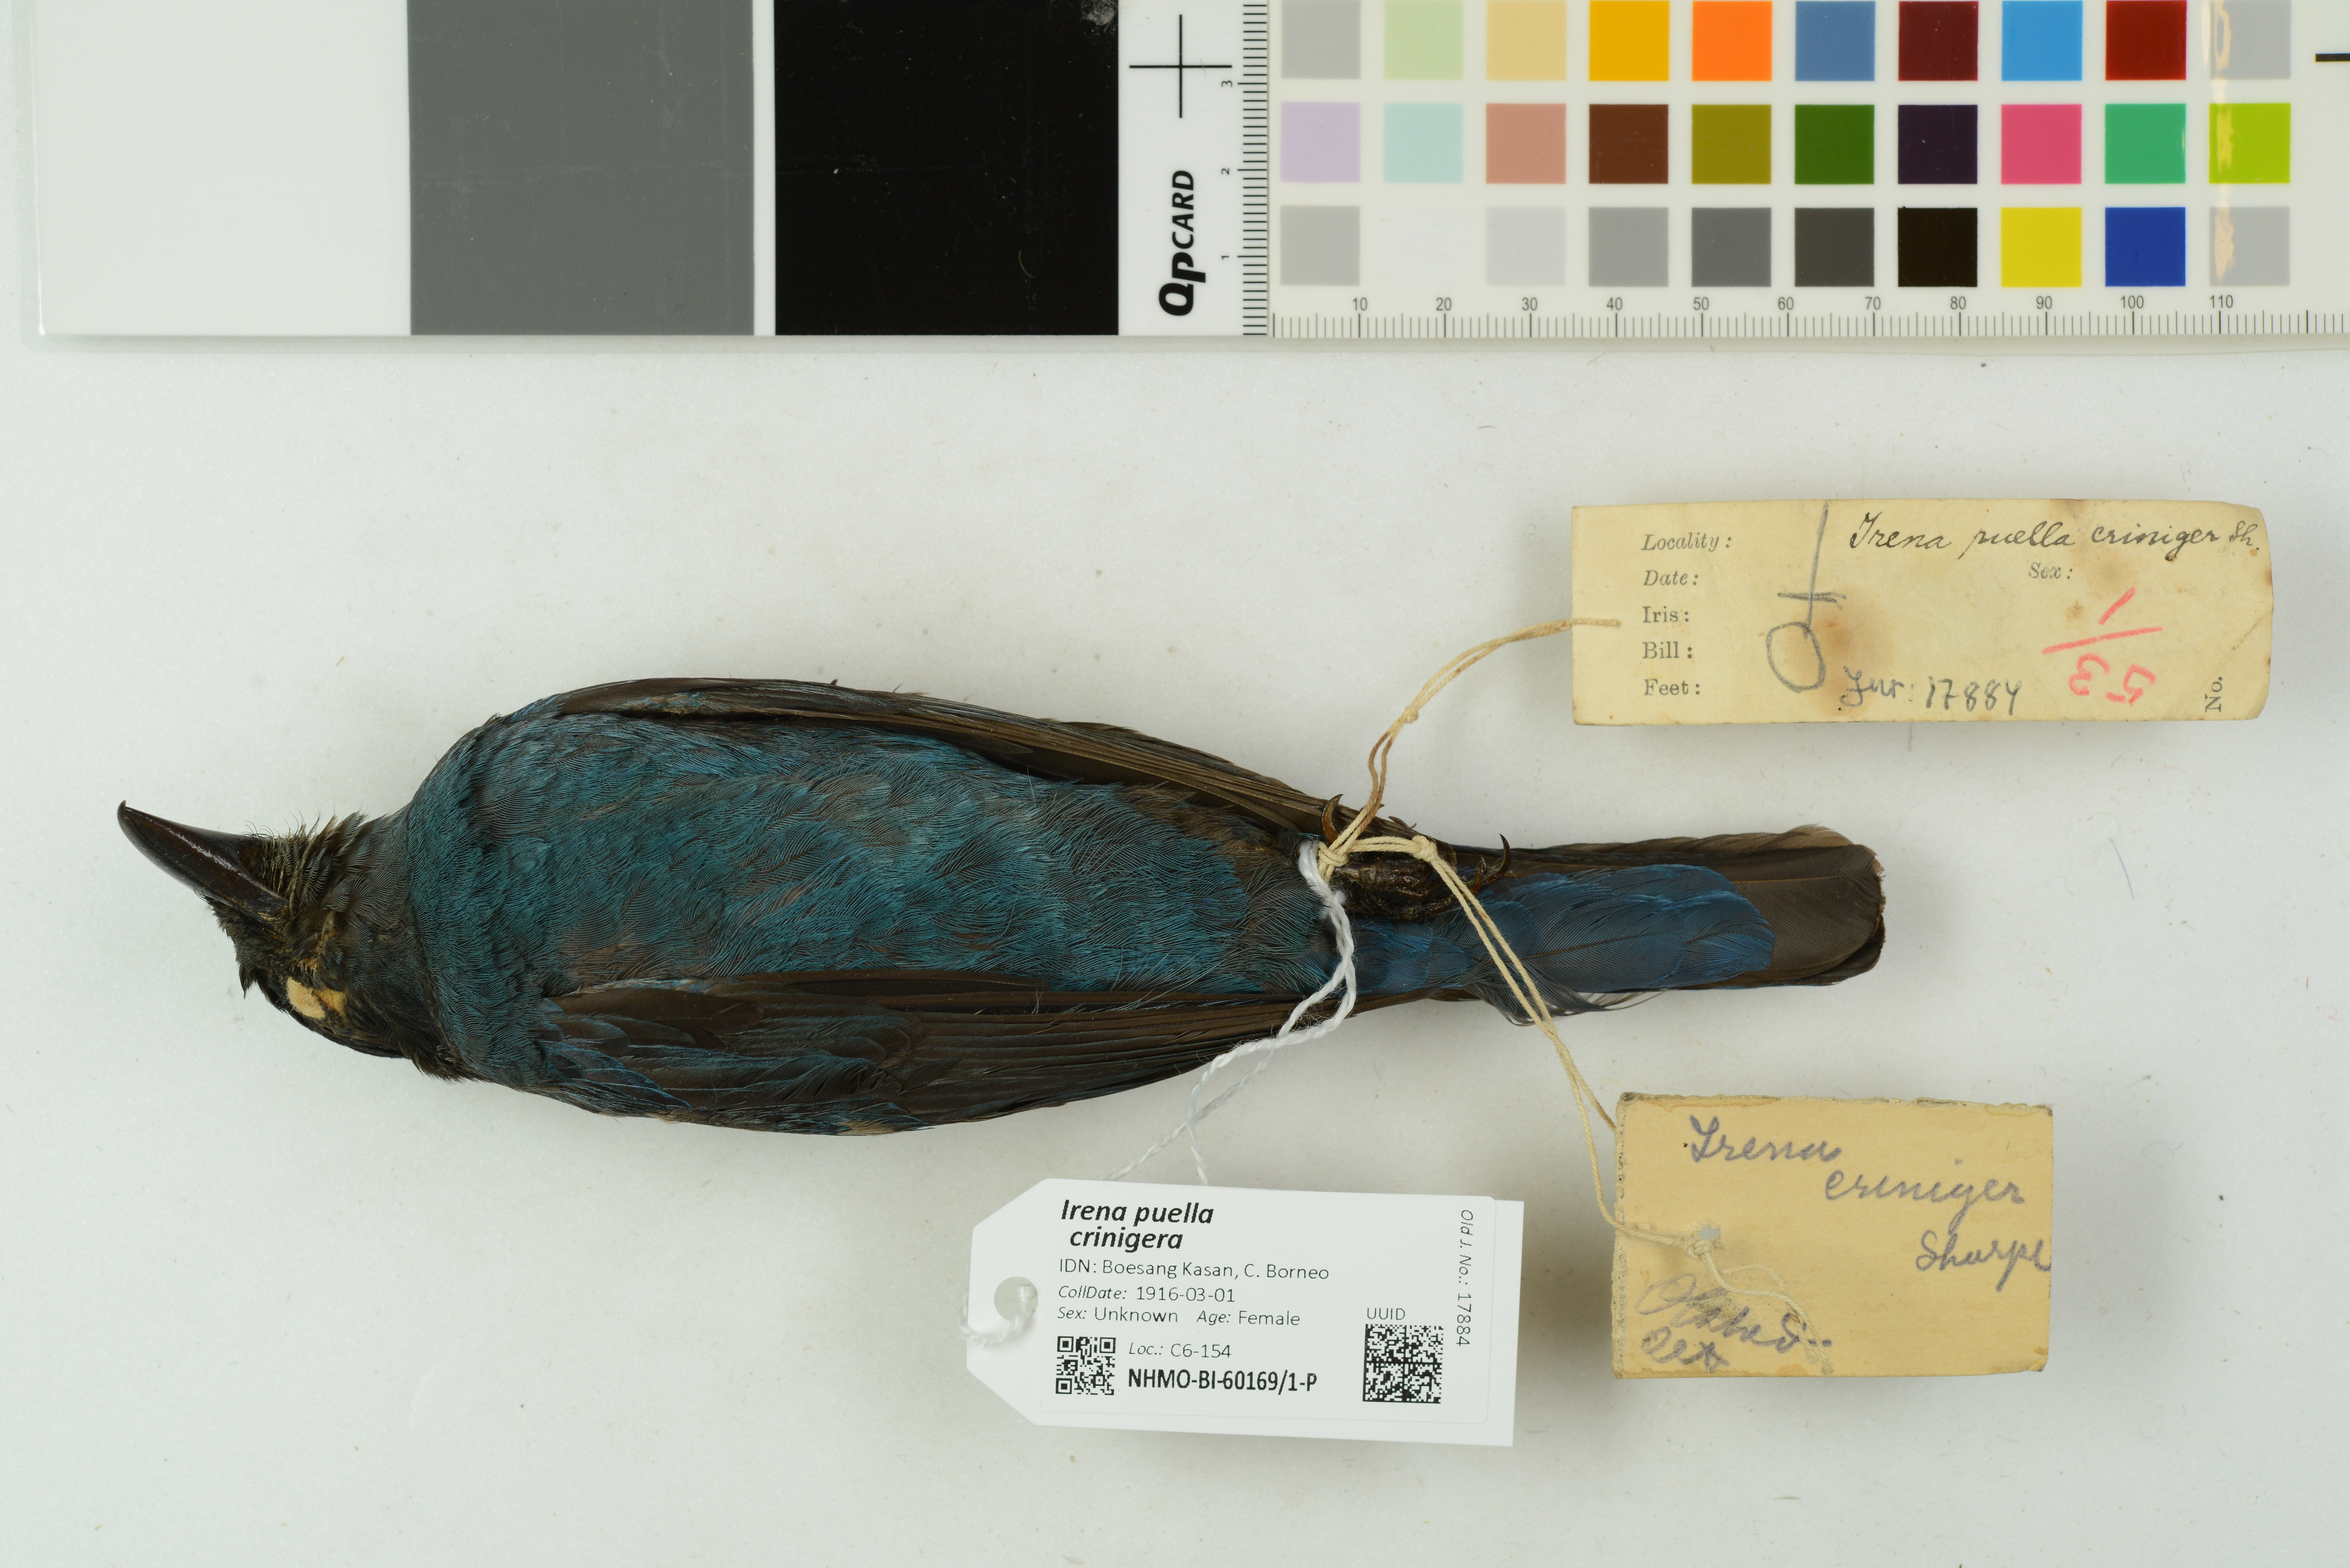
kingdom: Animalia
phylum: Chordata
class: Aves
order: Passeriformes
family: Irenidae
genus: Irena
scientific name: Irena puella
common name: Asian fairy-bluebird
